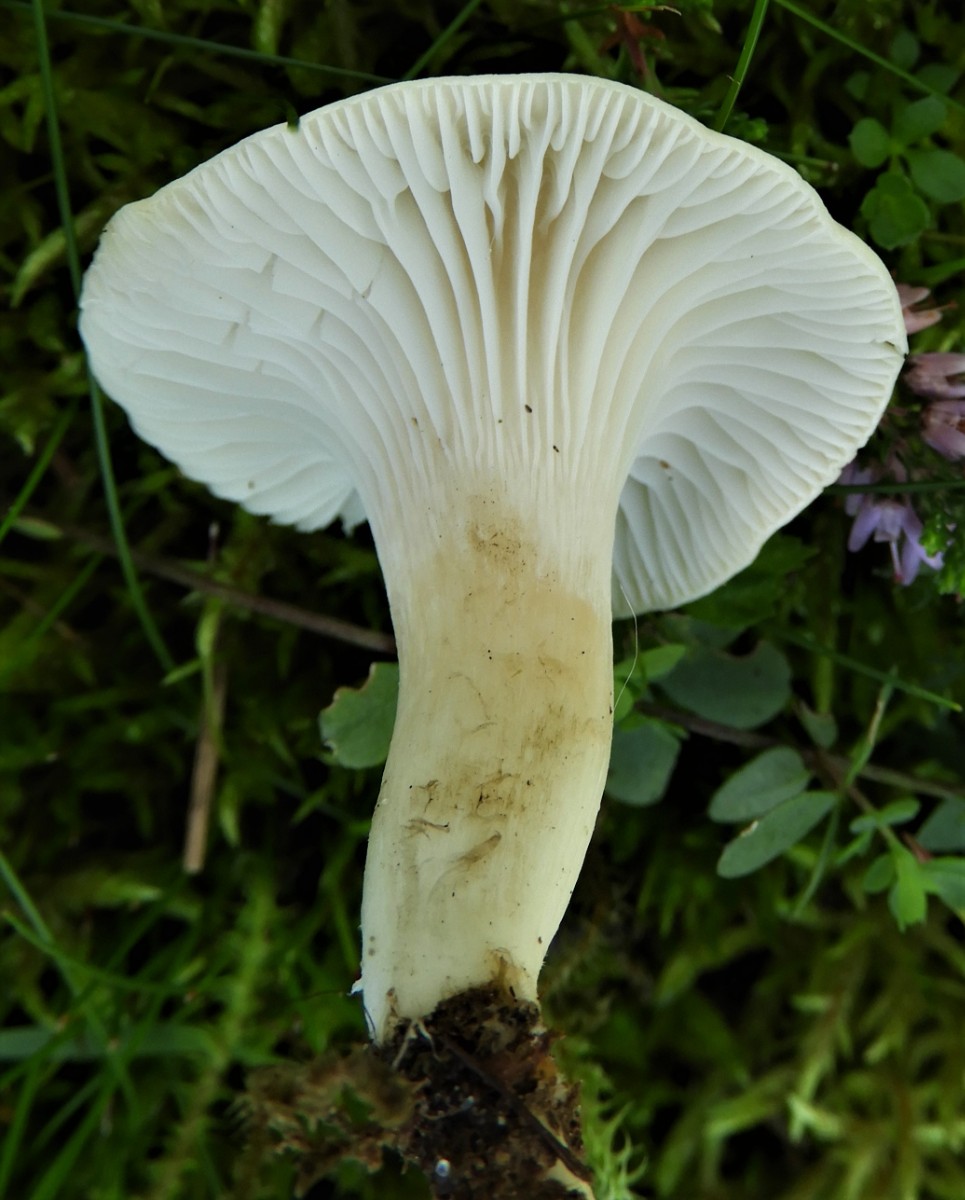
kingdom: Fungi
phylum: Basidiomycota
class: Agaricomycetes
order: Agaricales
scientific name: Agaricales
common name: champignonordenen
